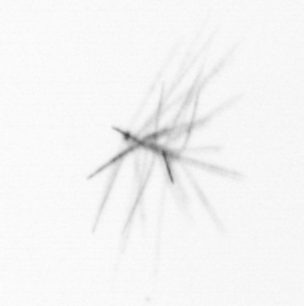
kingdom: Chromista
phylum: Ochrophyta
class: Bacillariophyceae
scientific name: Bacillariophyceae
